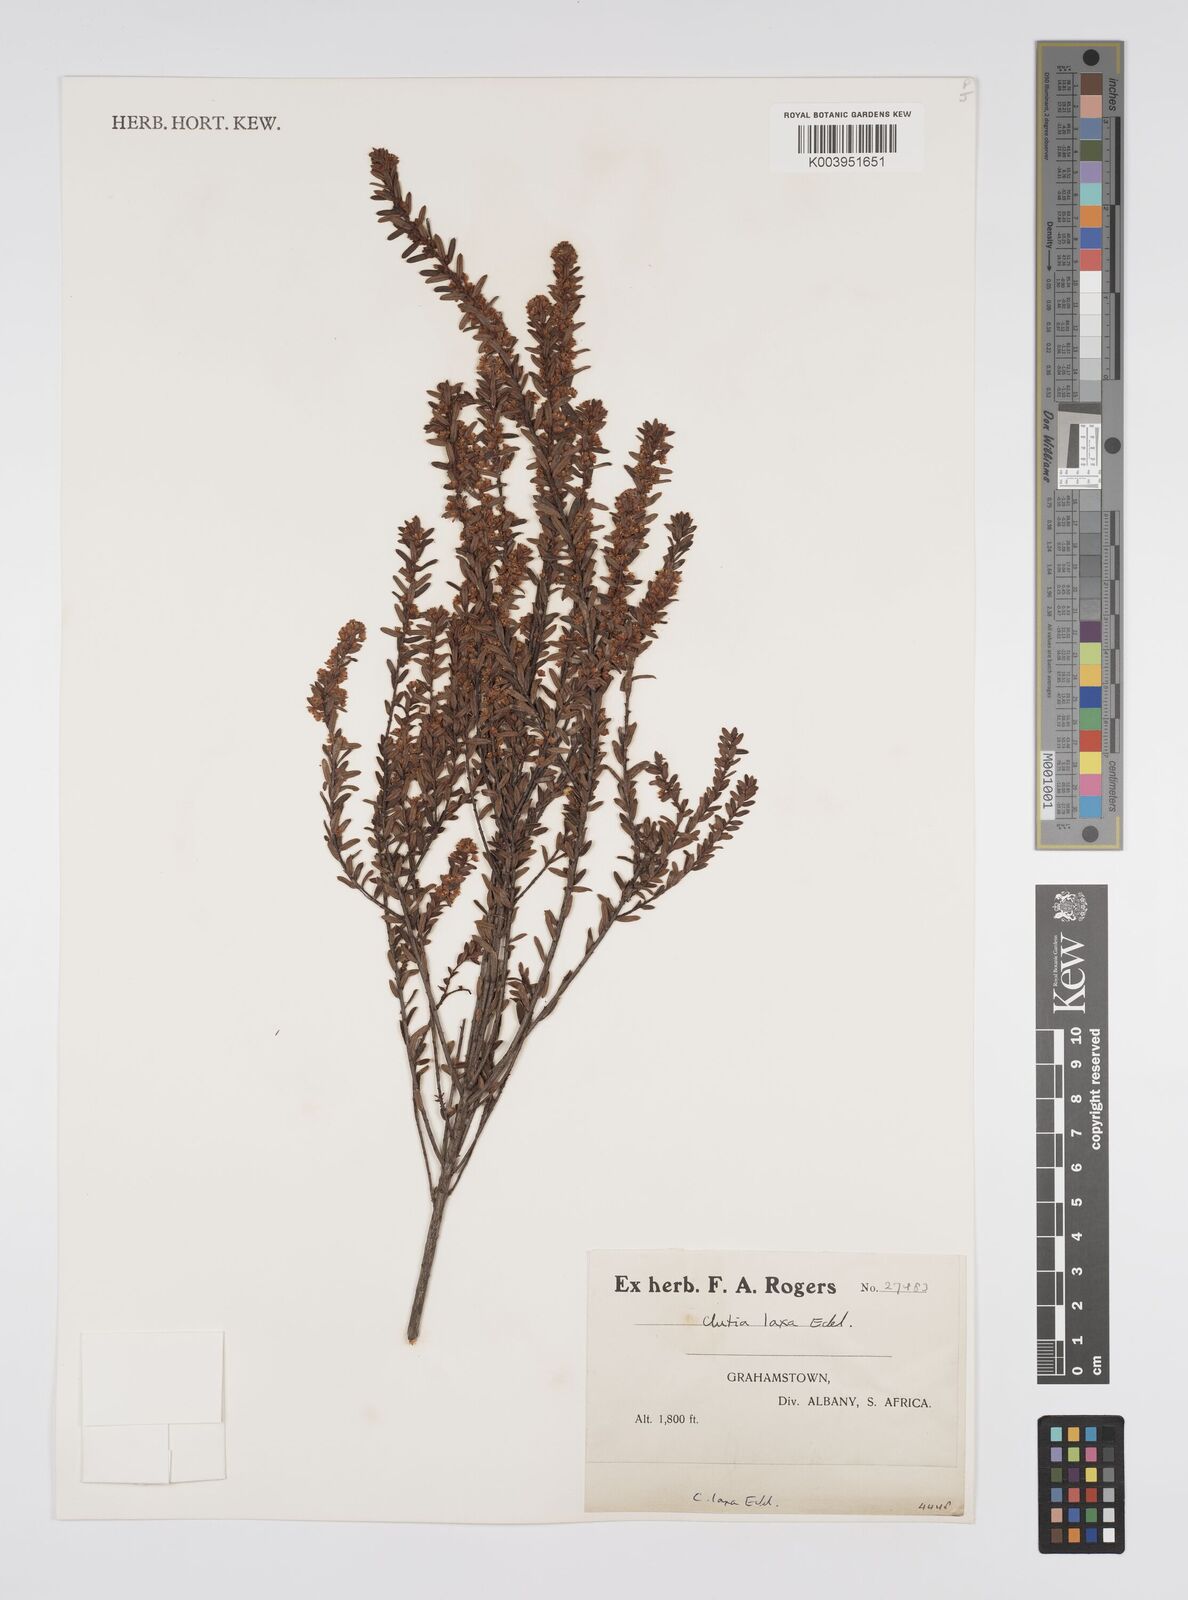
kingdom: Plantae
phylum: Tracheophyta
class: Magnoliopsida
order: Malpighiales
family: Peraceae
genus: Clutia
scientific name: Clutia laxa
